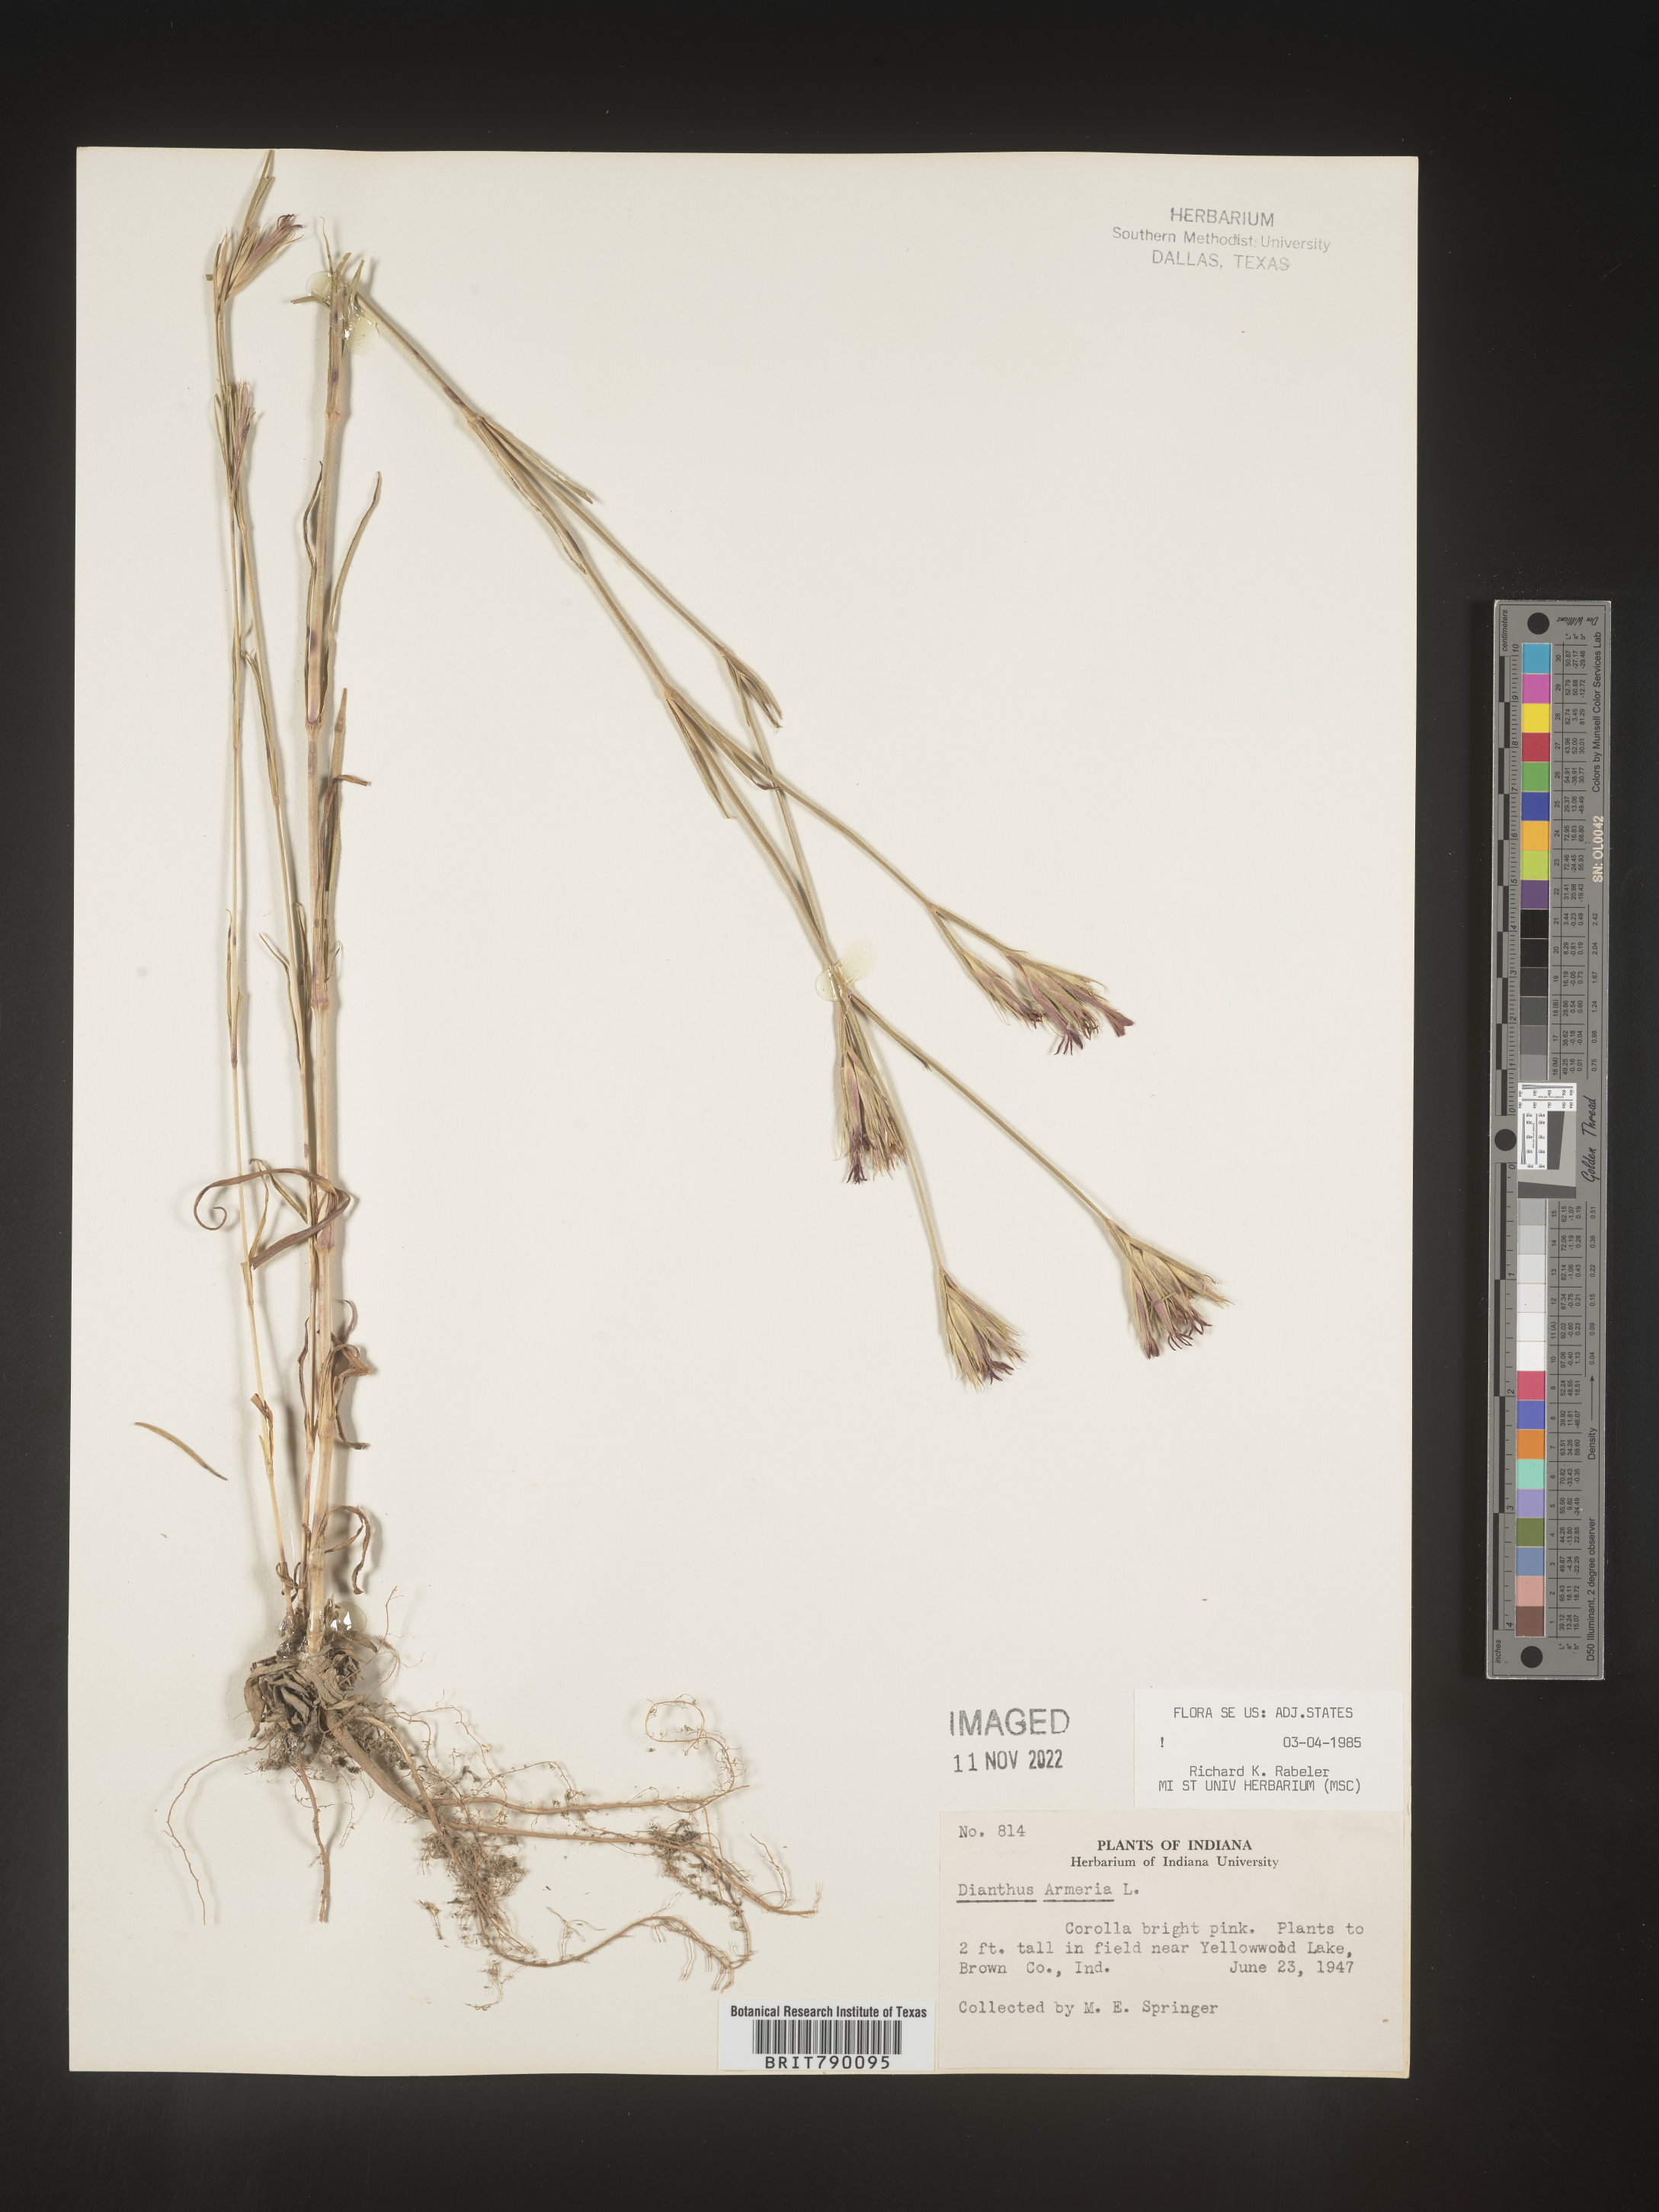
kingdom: Plantae
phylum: Tracheophyta
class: Magnoliopsida
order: Caryophyllales
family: Caryophyllaceae
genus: Dianthus
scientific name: Dianthus armeria
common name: Deptford pink
